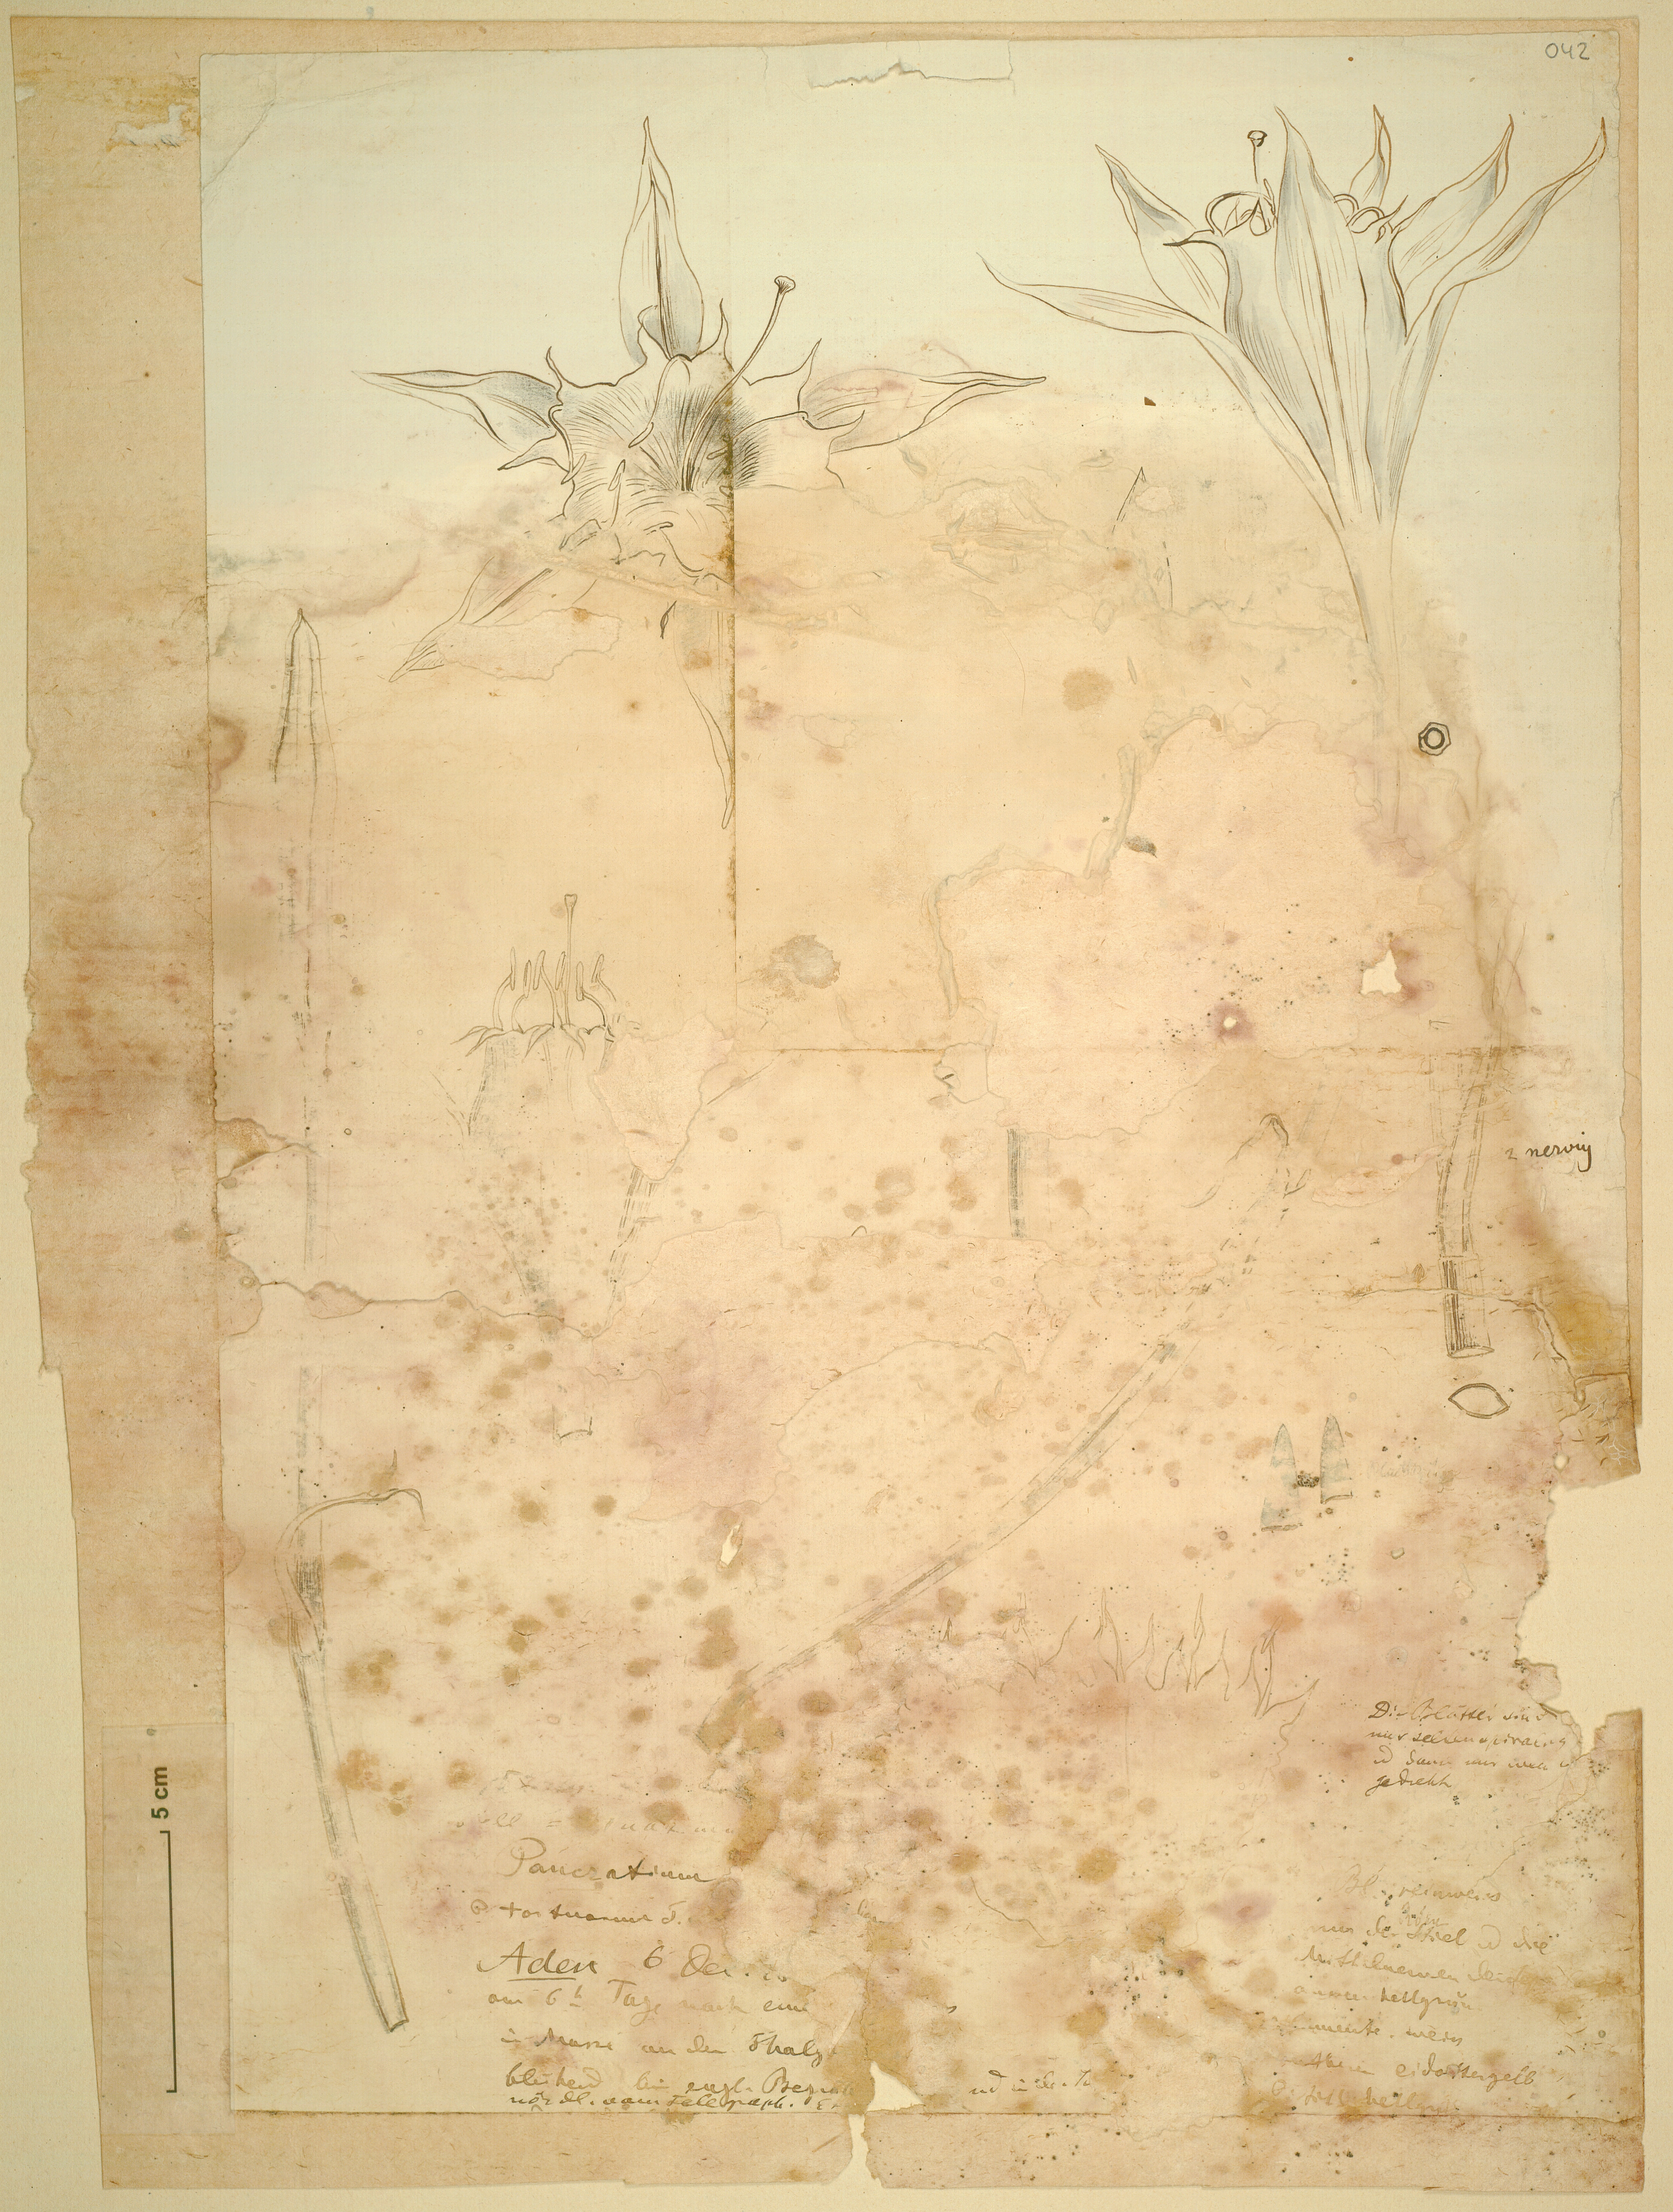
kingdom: Plantae
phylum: Tracheophyta
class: Liliopsida
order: Asparagales
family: Amaryllidaceae
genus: Pancratium
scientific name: Pancratium tortuosum
